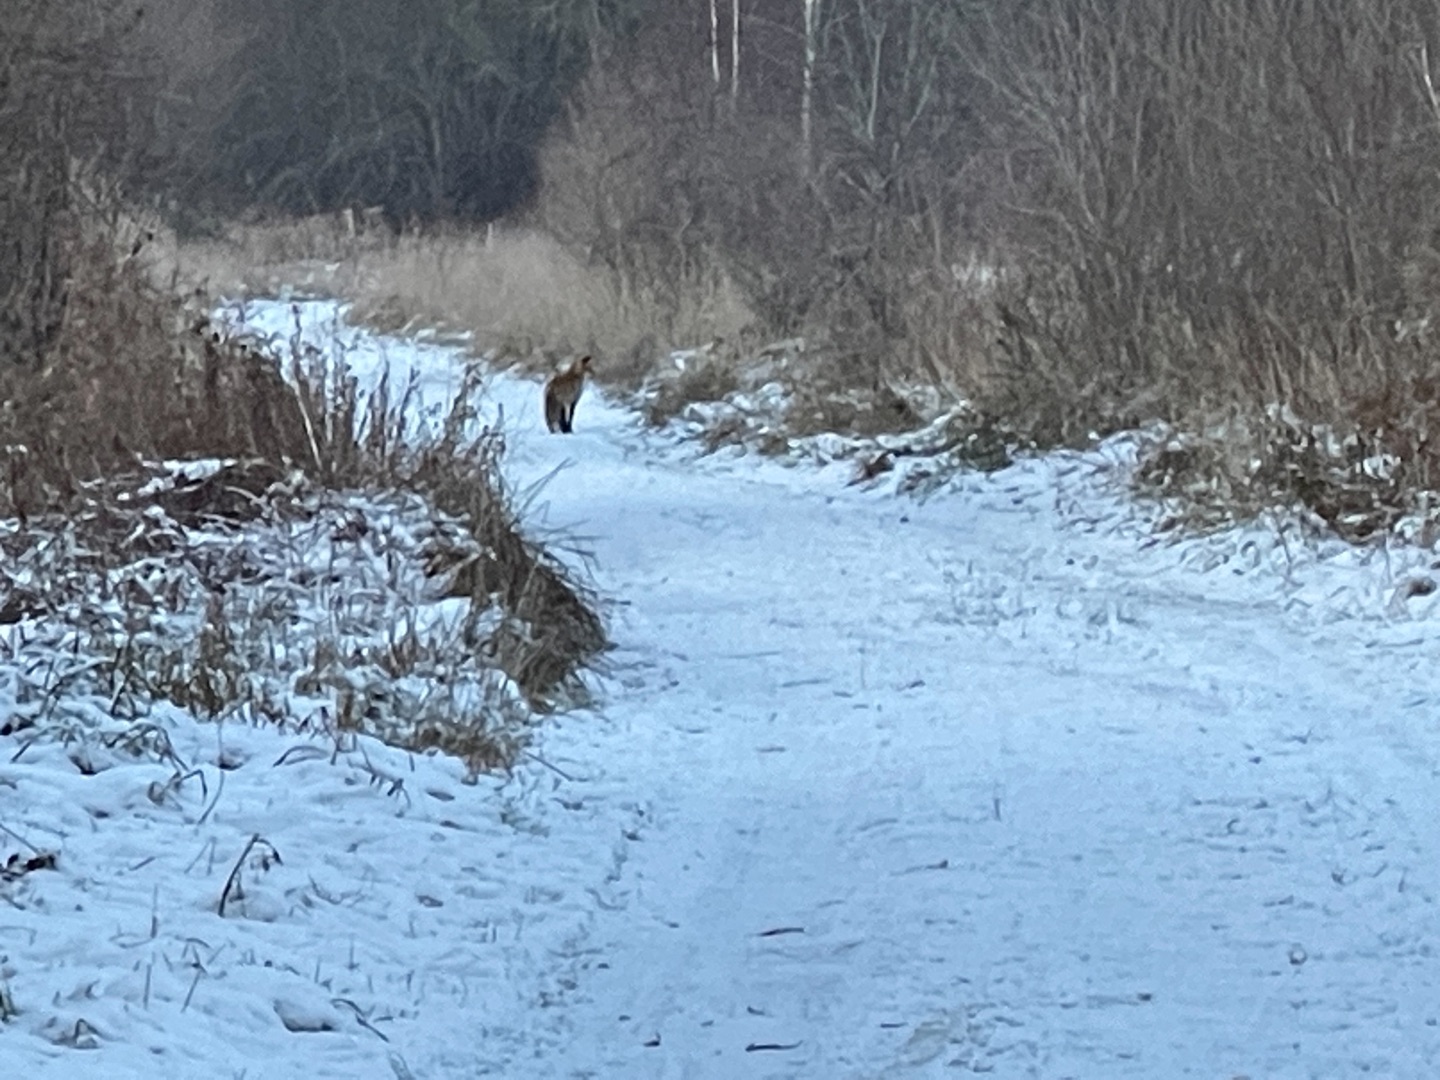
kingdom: Animalia
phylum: Chordata
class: Mammalia
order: Carnivora
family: Canidae
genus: Vulpes
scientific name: Vulpes vulpes
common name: Ræv
